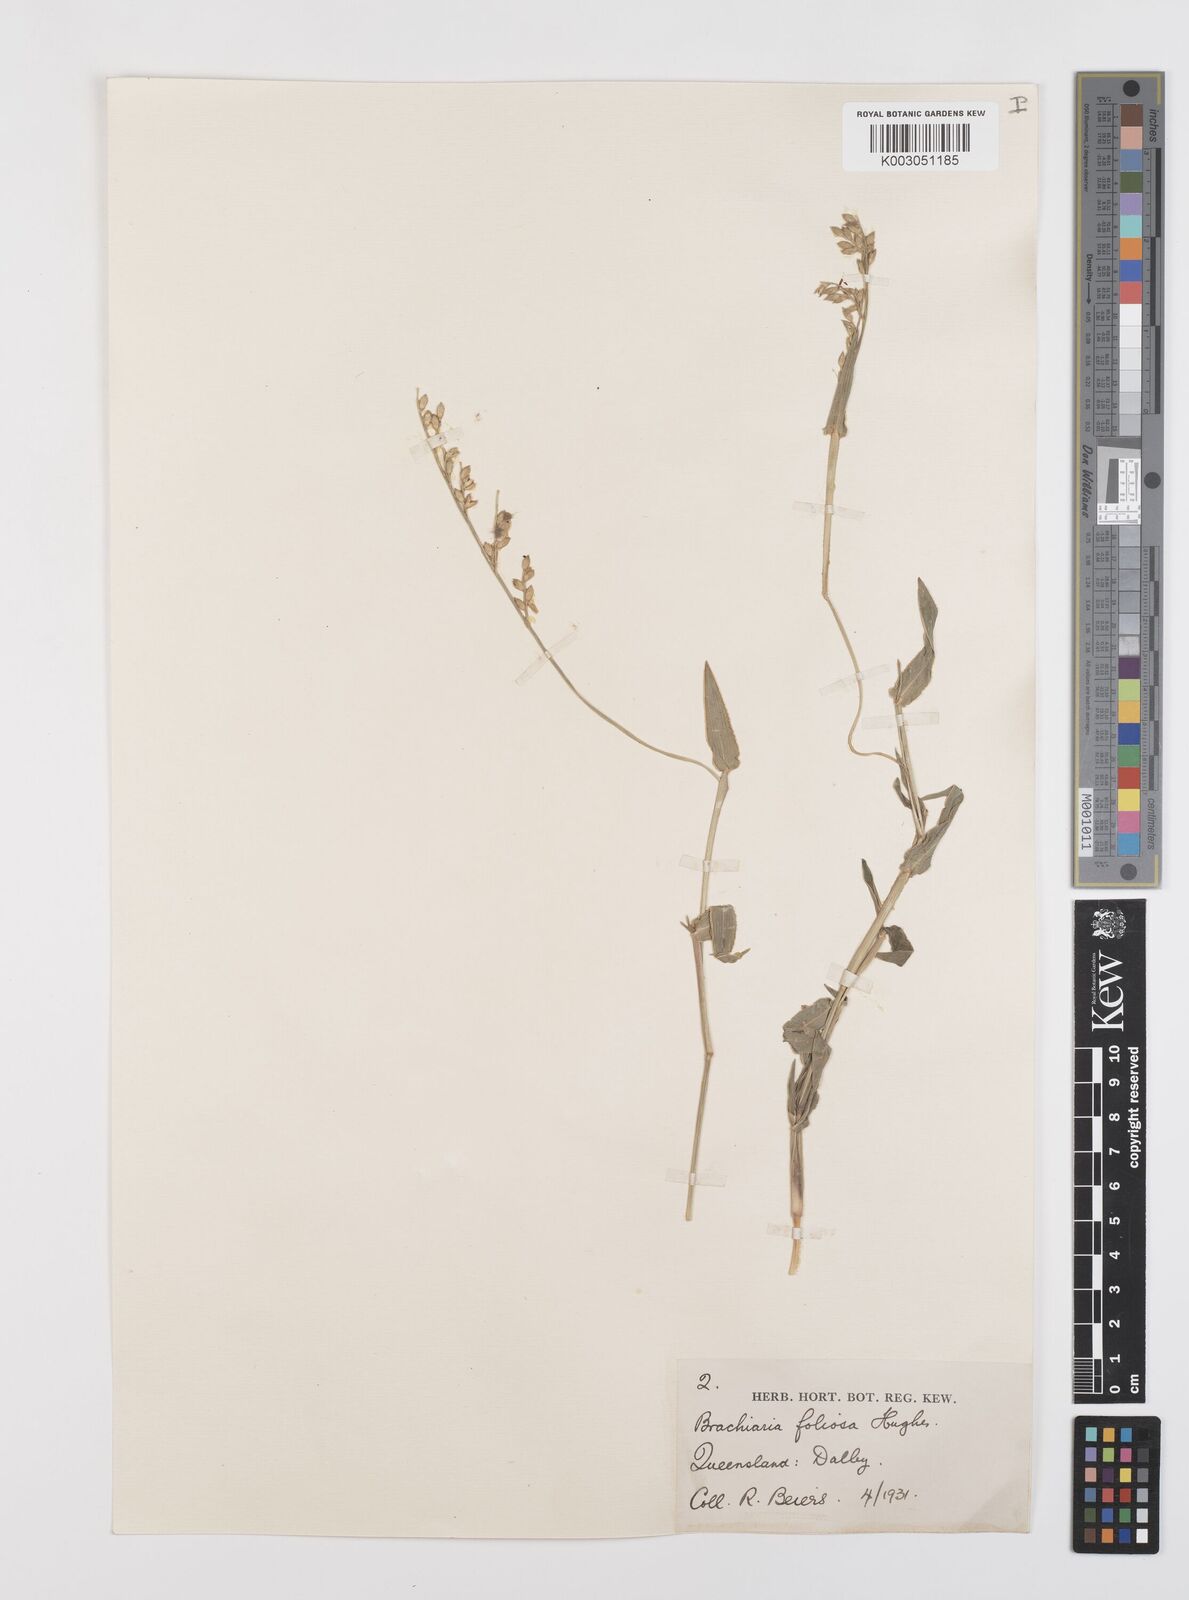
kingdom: Plantae
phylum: Tracheophyta
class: Liliopsida
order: Poales
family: Poaceae
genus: Urochloa
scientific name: Urochloa foliosa
